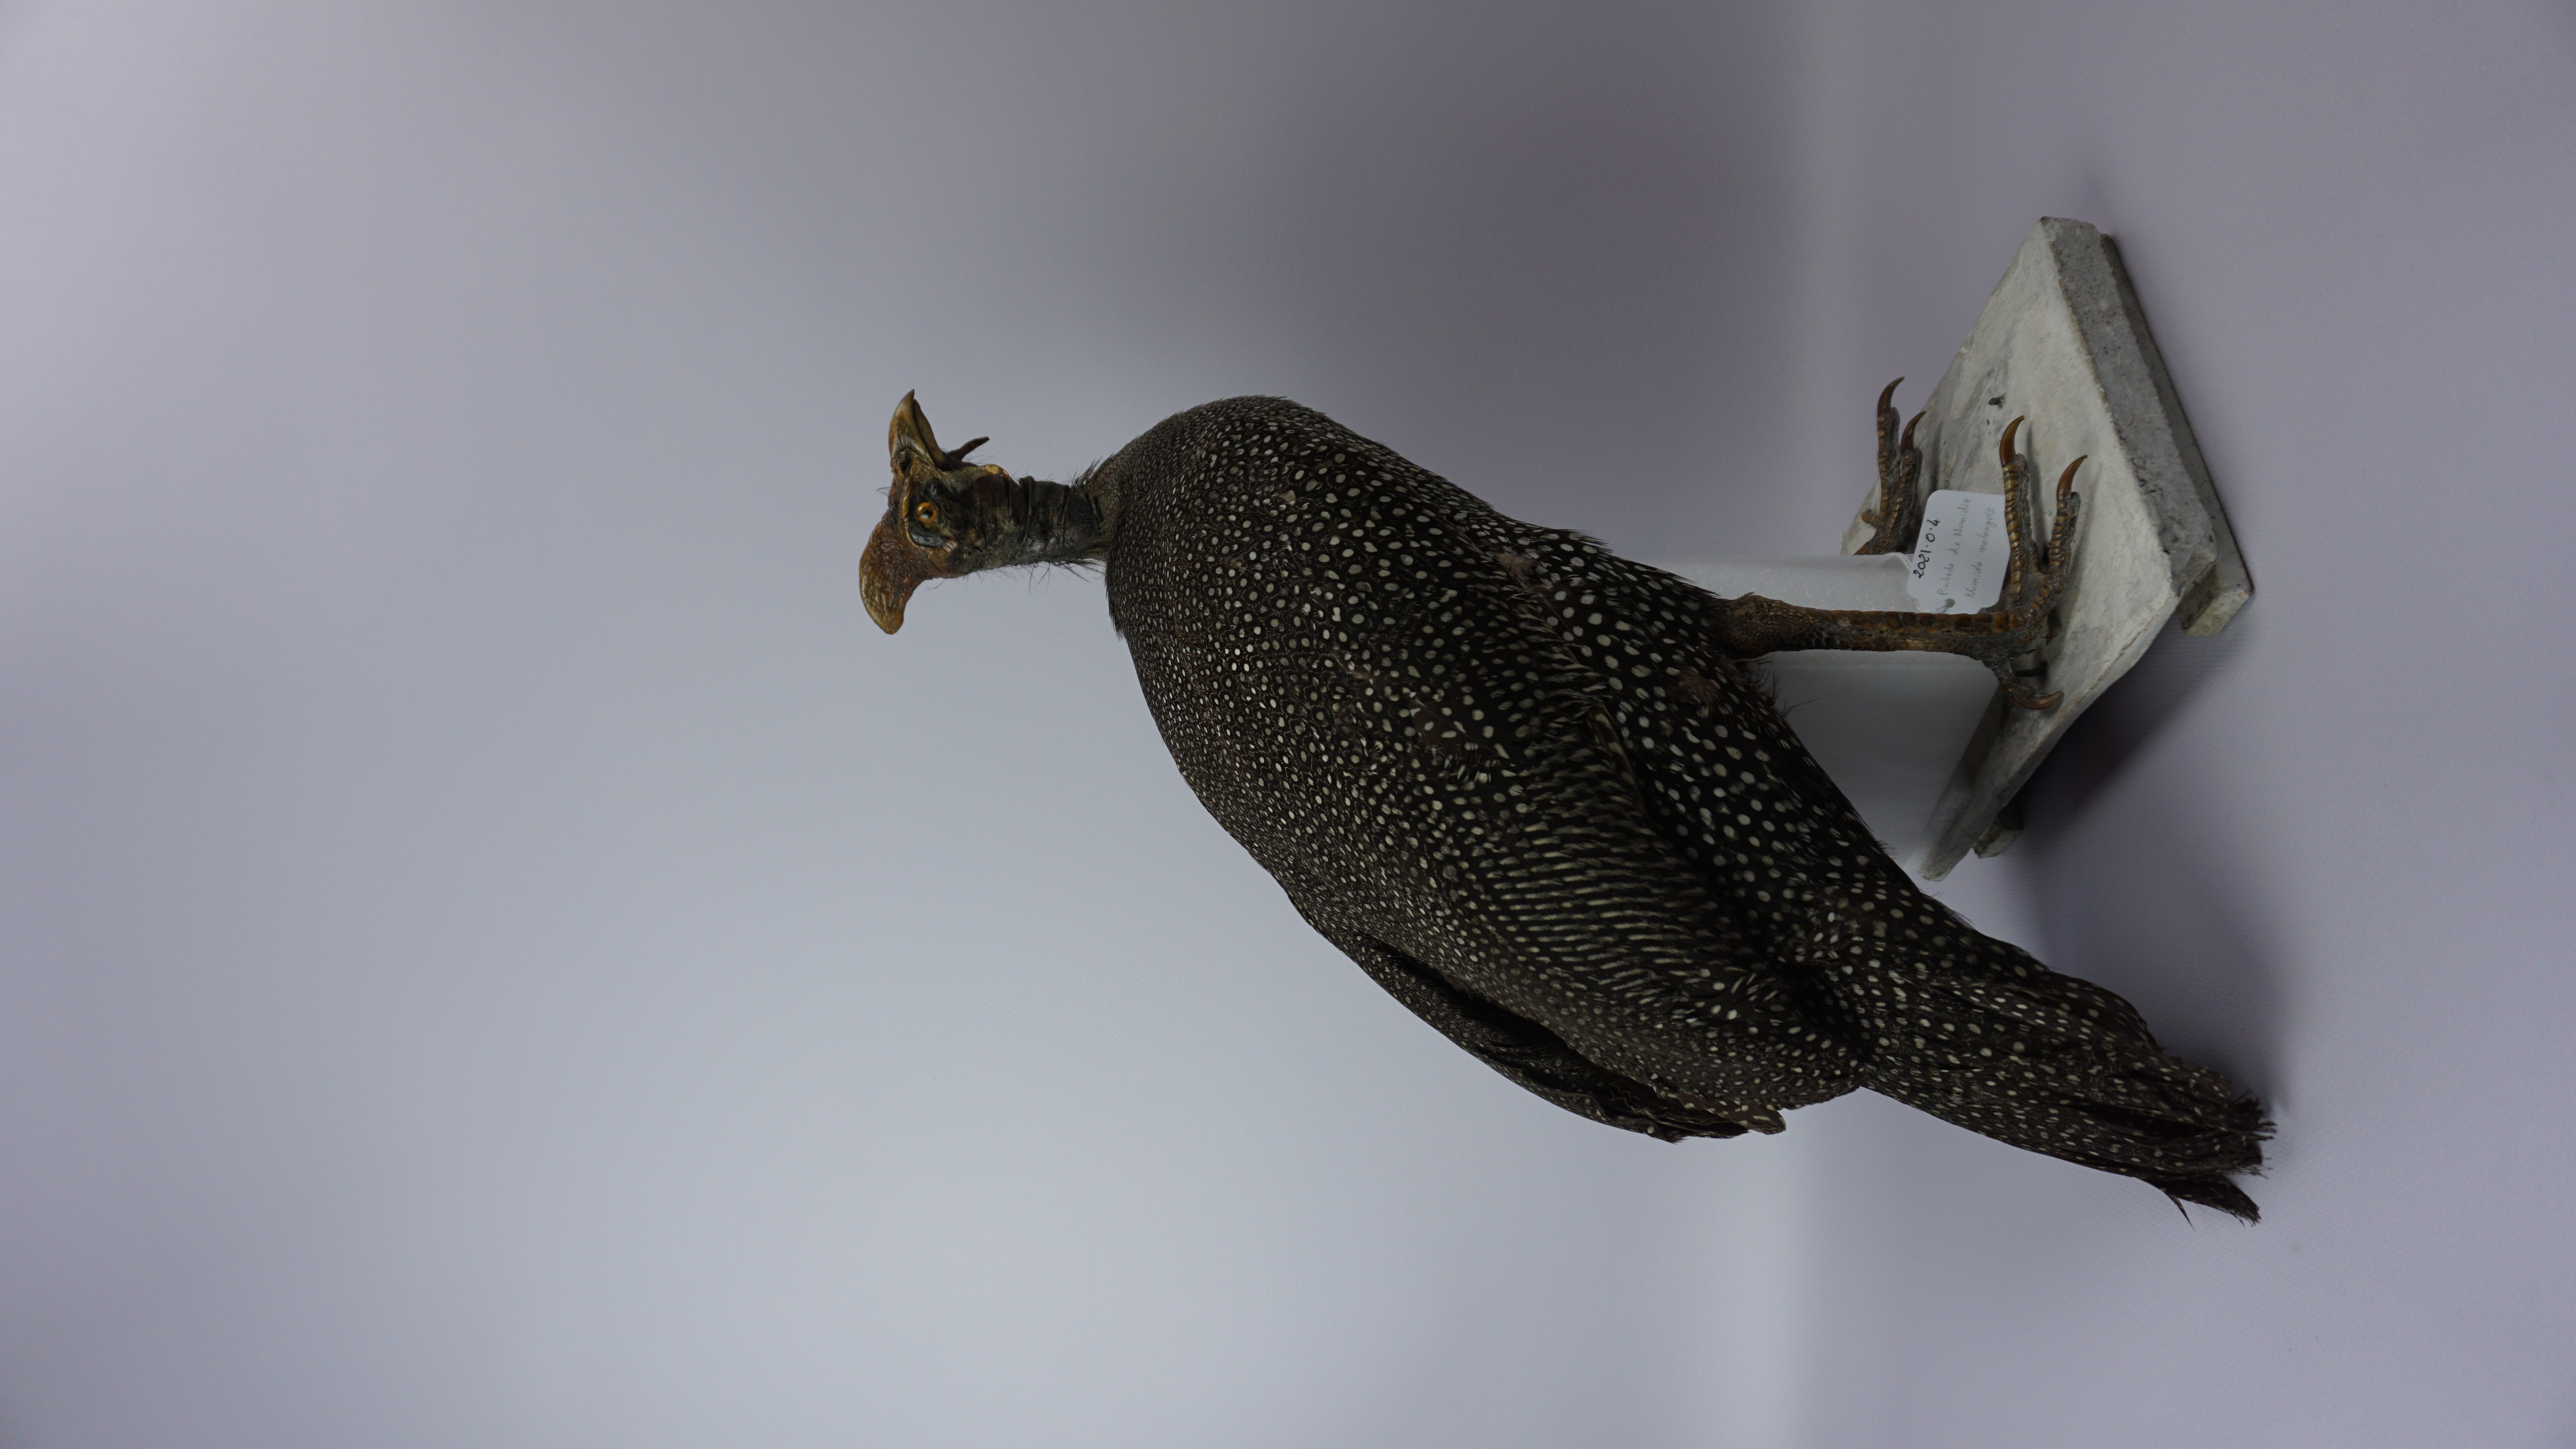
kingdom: Animalia
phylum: Chordata
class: Aves
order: Galliformes
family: Numididae
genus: Numida
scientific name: Numida meleagris
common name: Helmeted guineafowl
